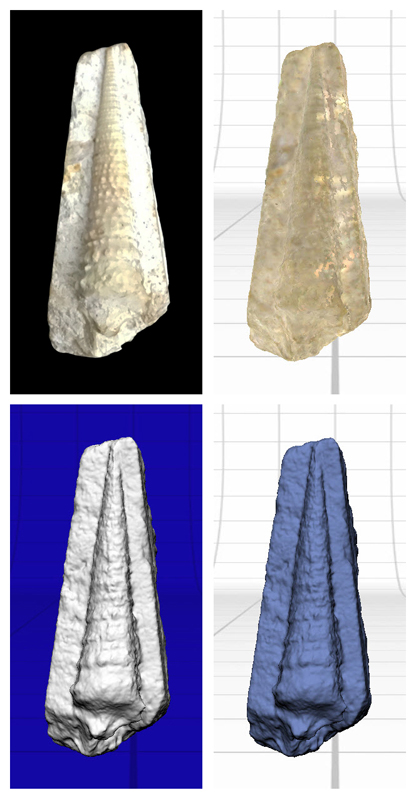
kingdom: Animalia
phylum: Mollusca
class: Gastropoda
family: Cerithiidae
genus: Cerithium
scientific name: Cerithium guinaicum
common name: Guinea cerith
